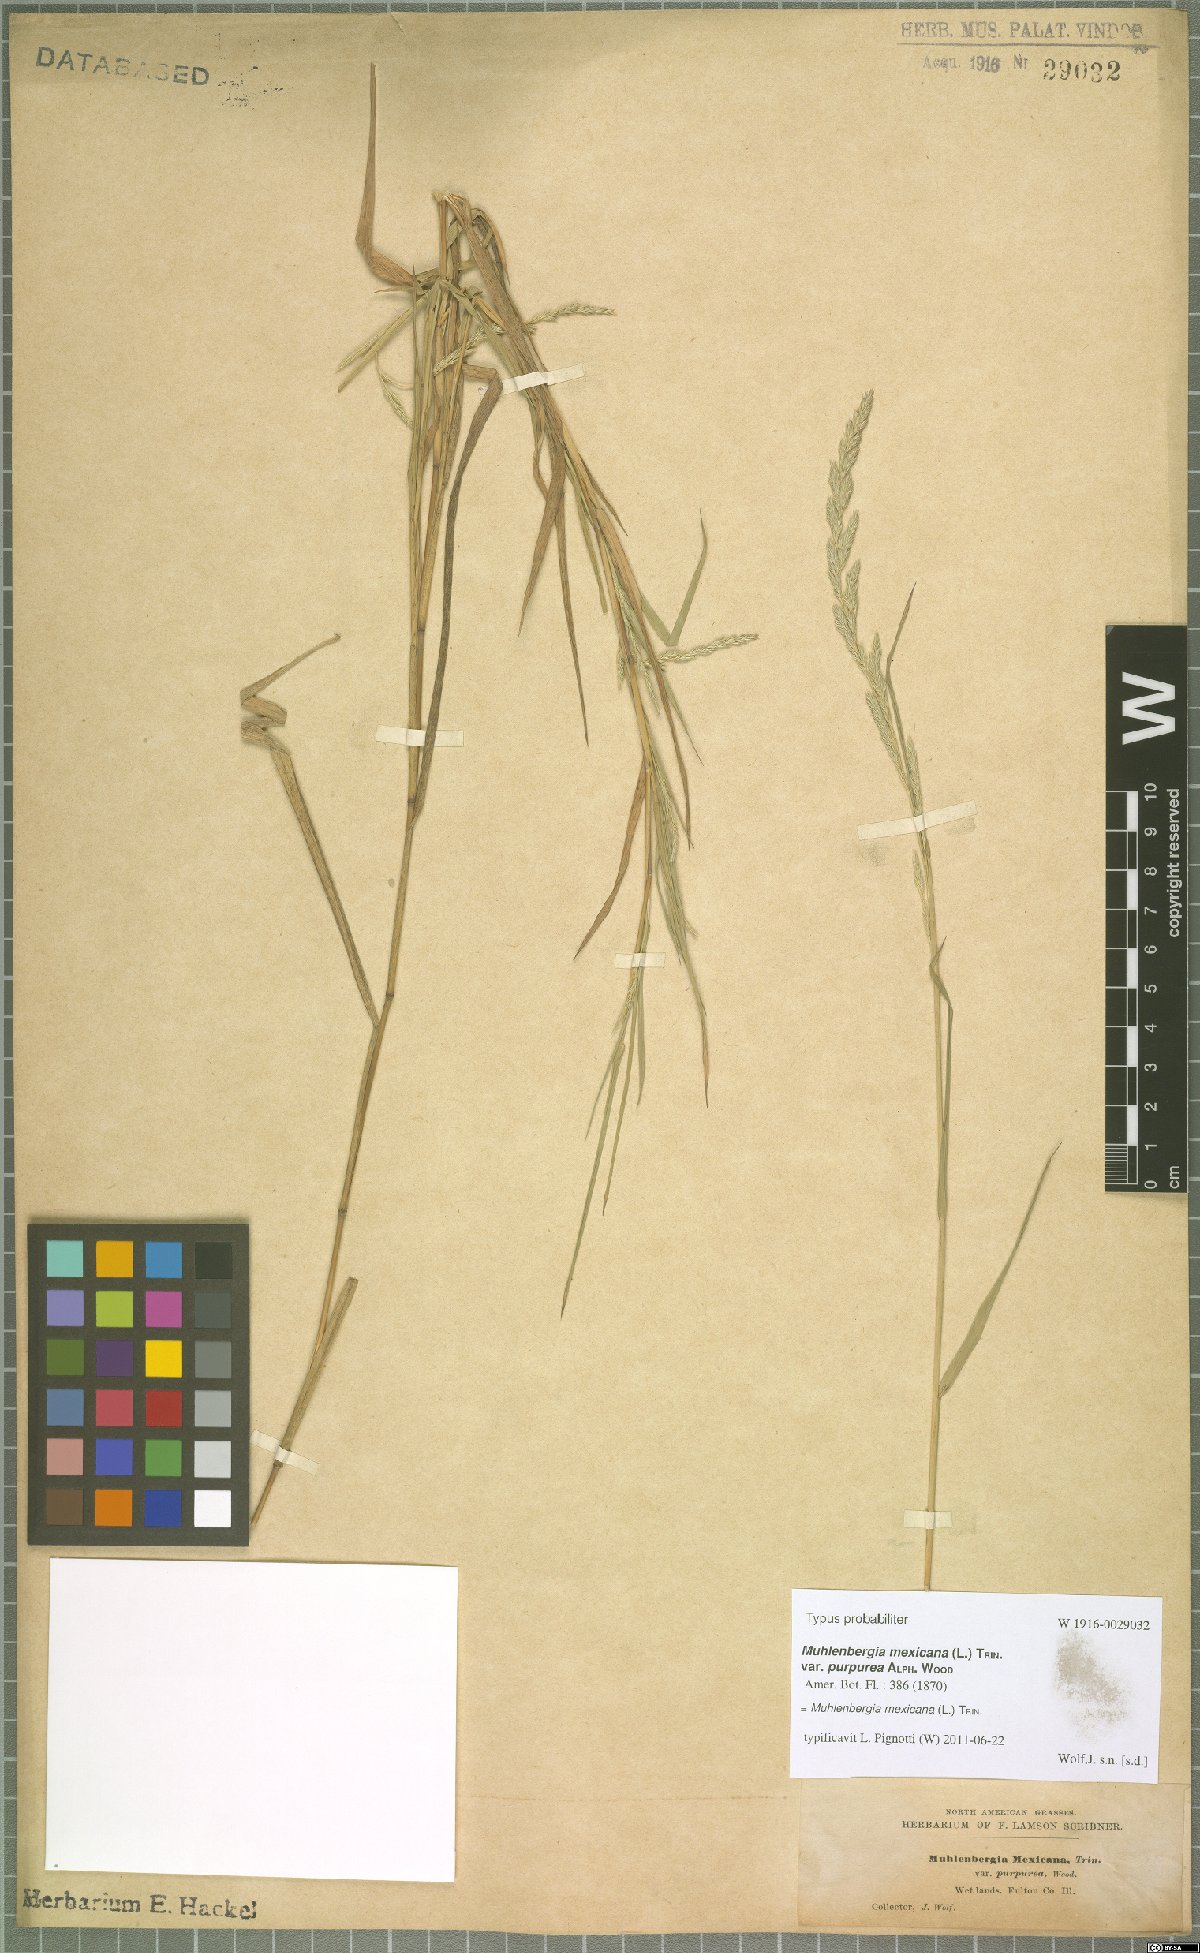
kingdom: Plantae
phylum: Tracheophyta
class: Liliopsida
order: Poales
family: Poaceae
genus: Muhlenbergia
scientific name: Muhlenbergia mexicana
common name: Mexican muhly
